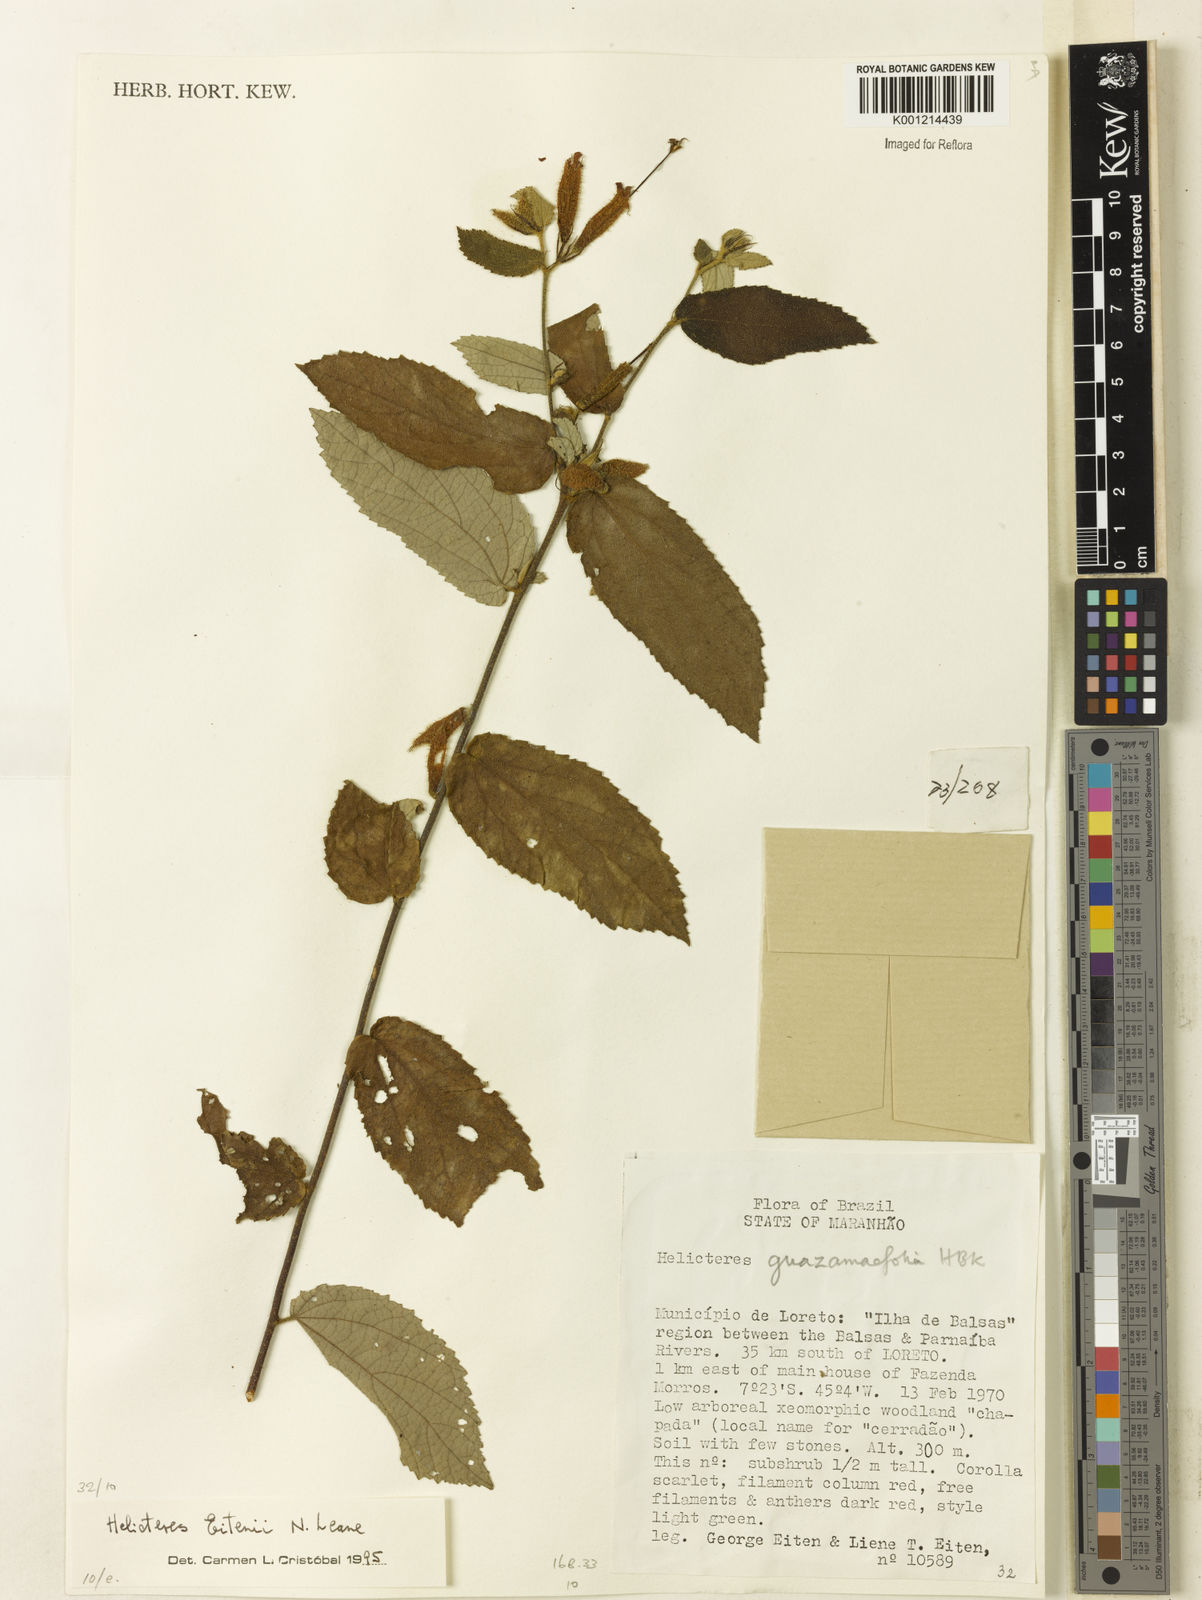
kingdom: Plantae
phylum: Tracheophyta
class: Magnoliopsida
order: Malvales
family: Malvaceae
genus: Helicteres
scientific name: Helicteres eitenii
